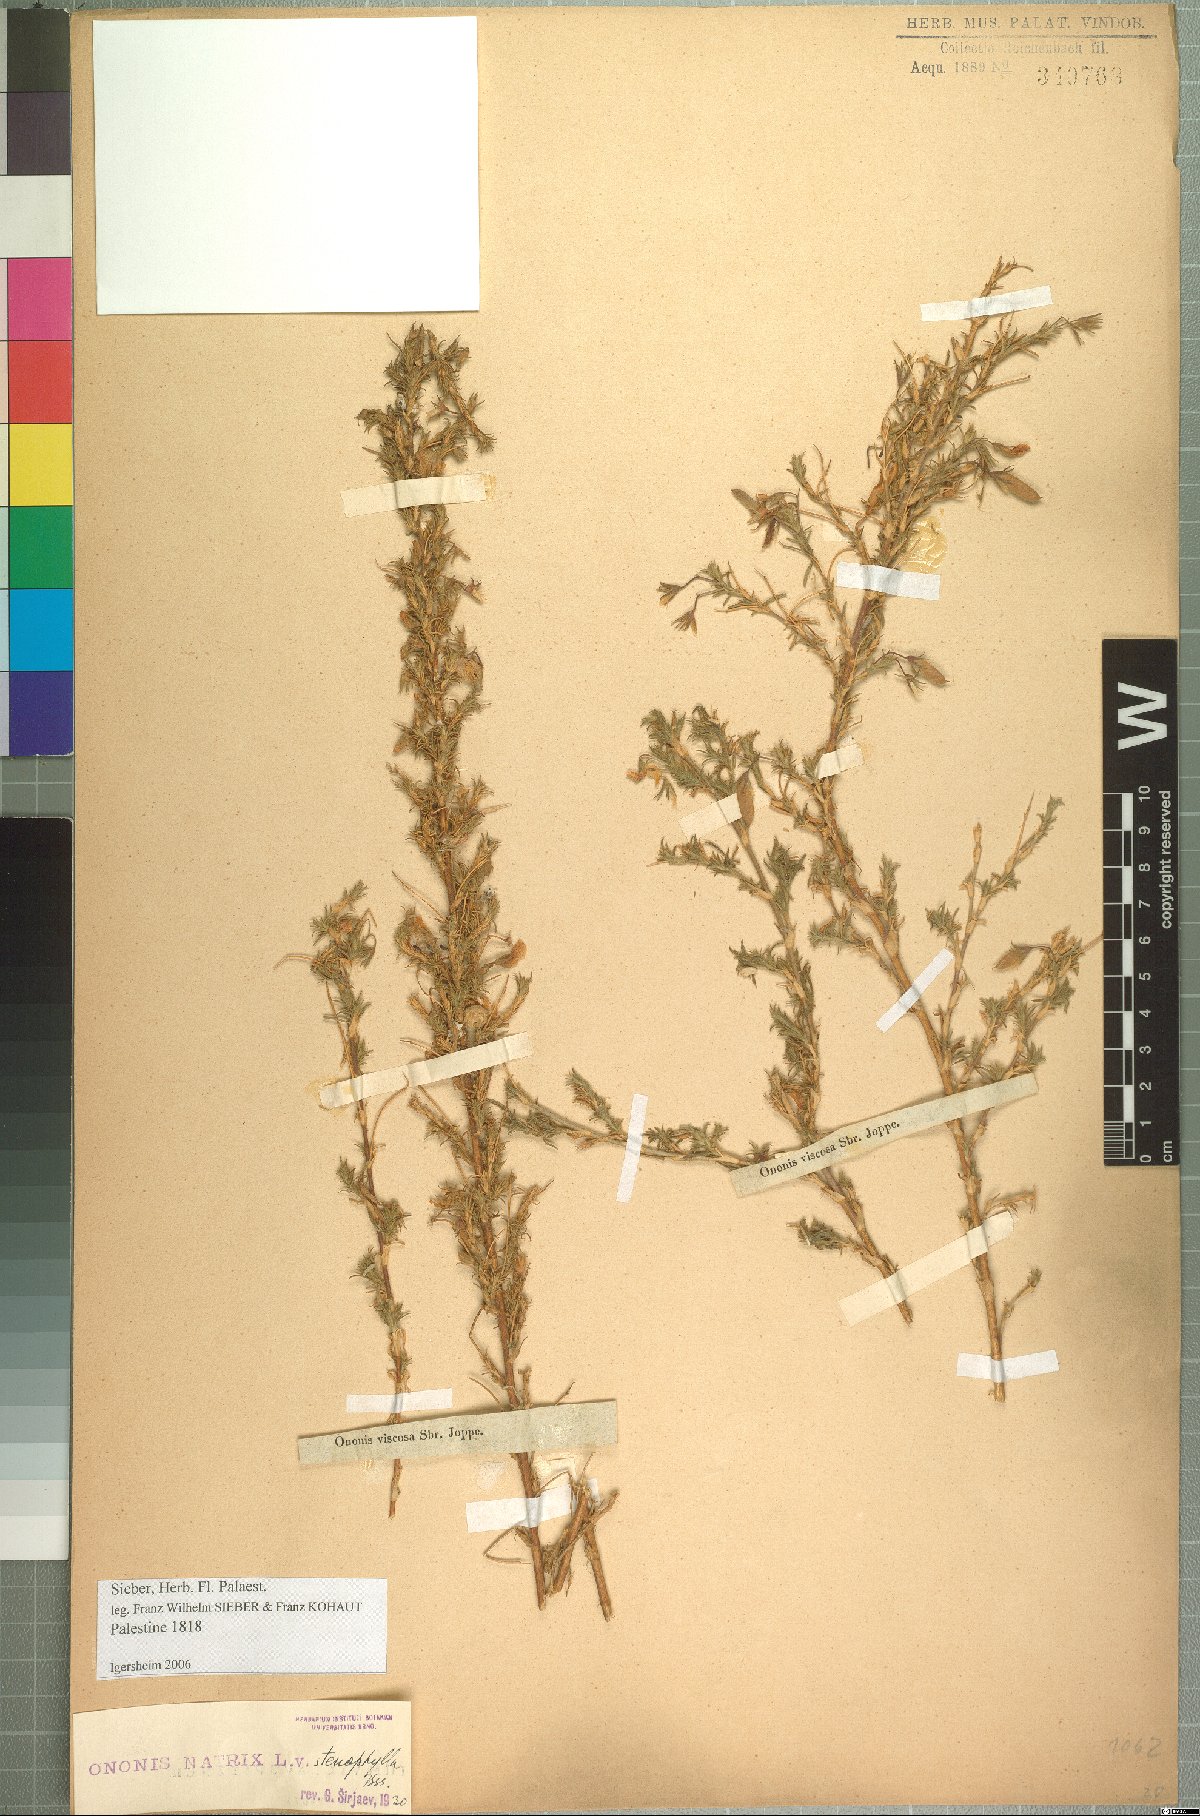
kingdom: Plantae
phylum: Tracheophyta
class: Magnoliopsida
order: Fabales
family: Fabaceae
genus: Ononis
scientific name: Ononis natrix
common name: Yellow restharrow
